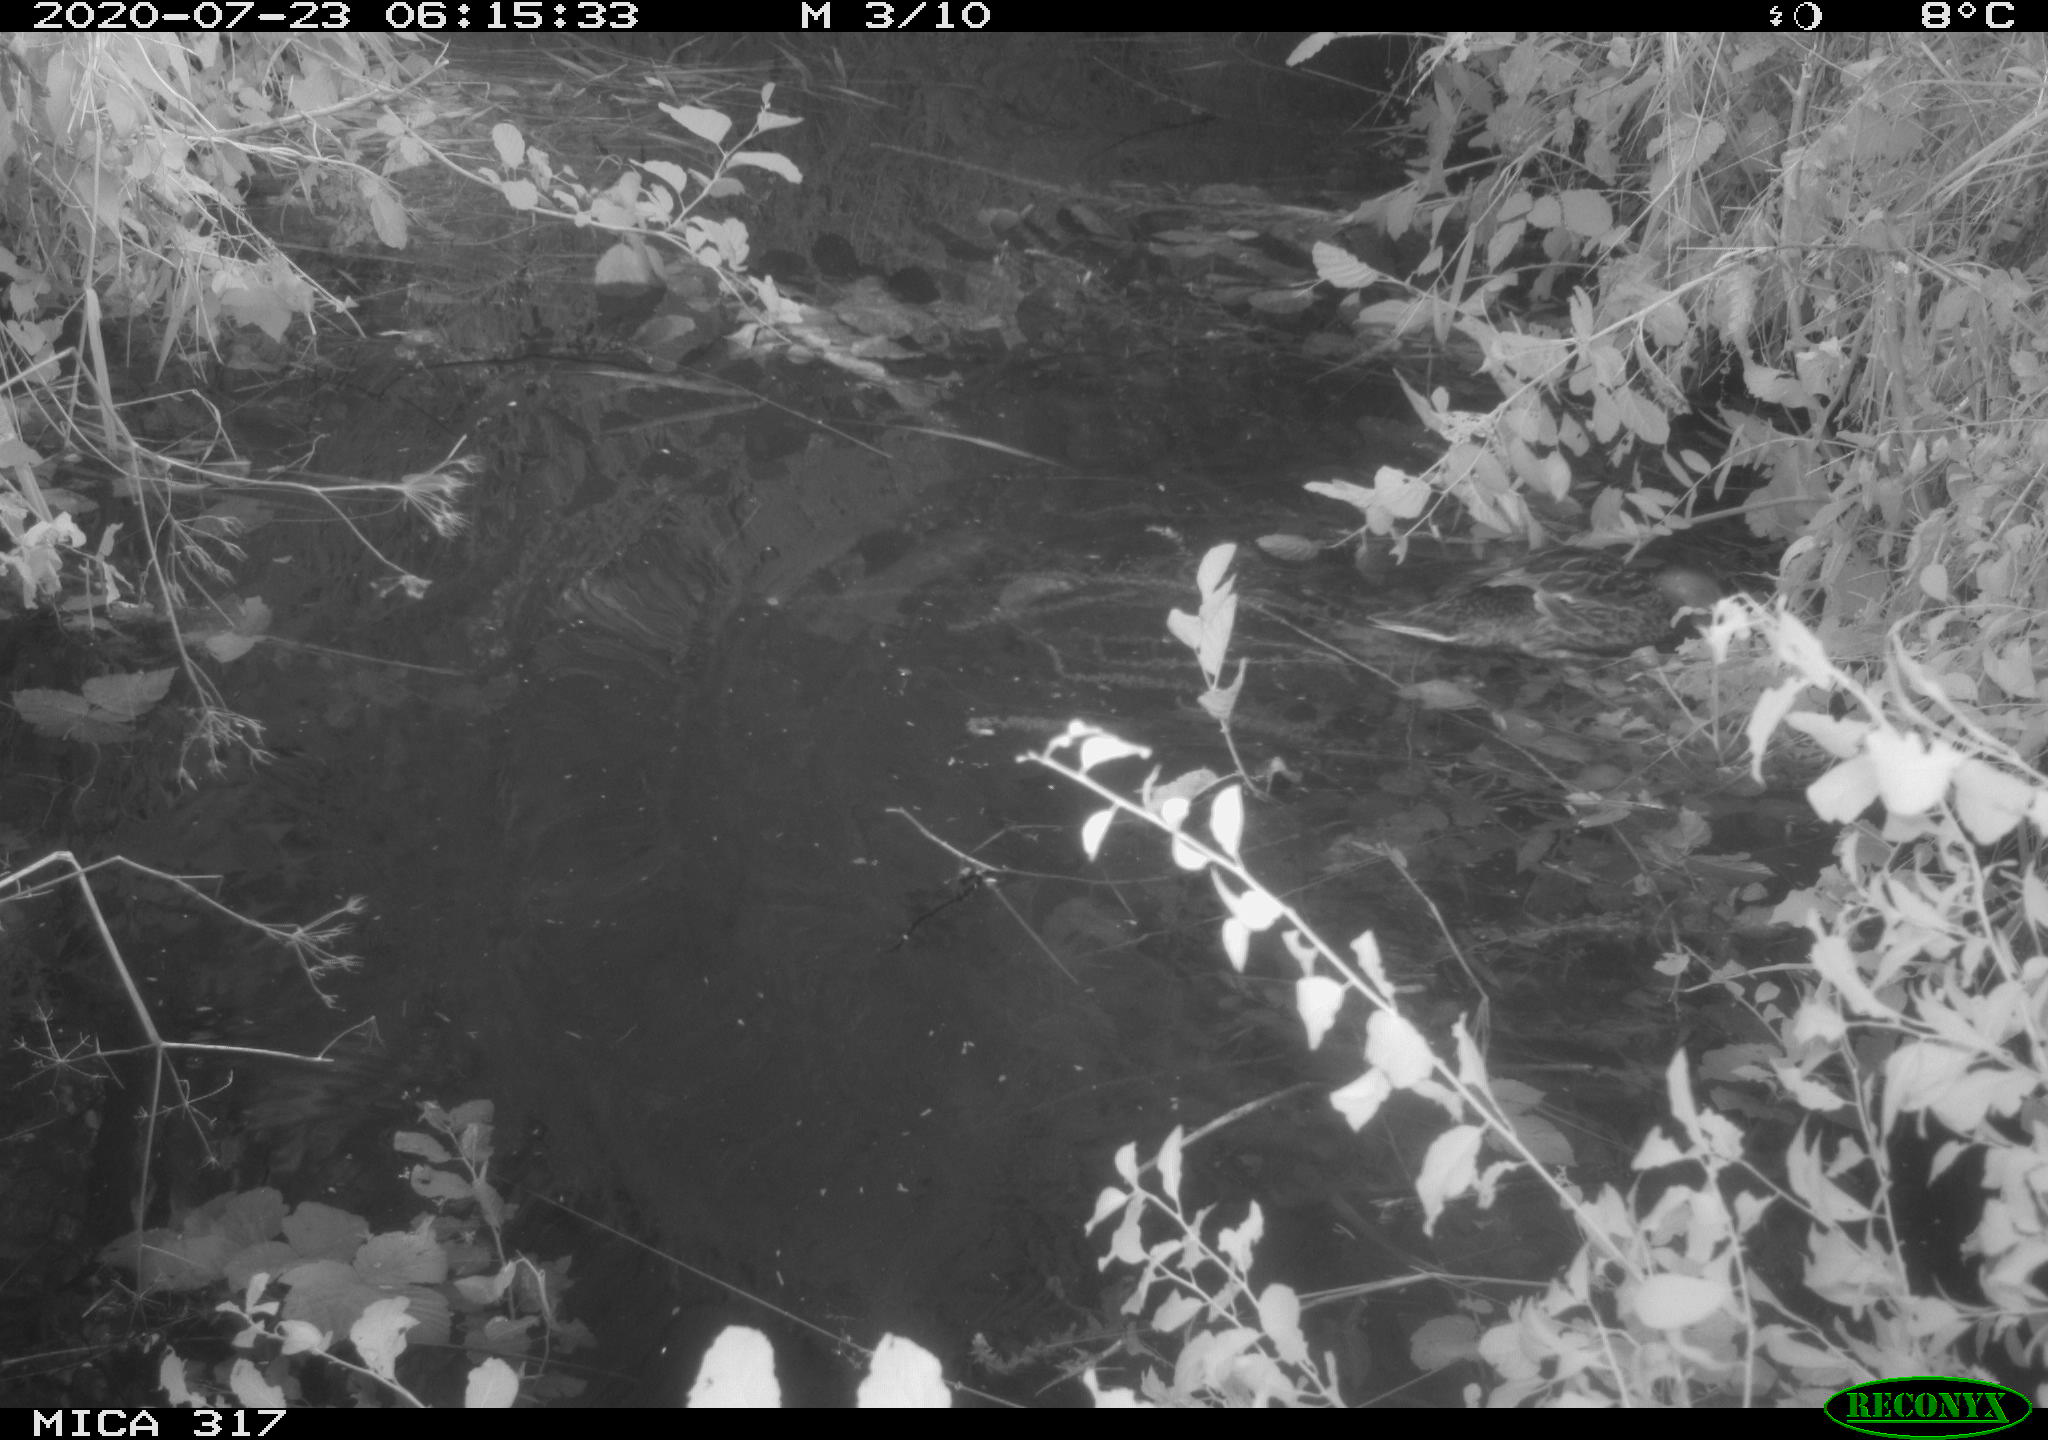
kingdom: Animalia
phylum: Chordata
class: Aves
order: Anseriformes
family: Anatidae
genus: Anas
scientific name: Anas platyrhynchos
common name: Mallard
